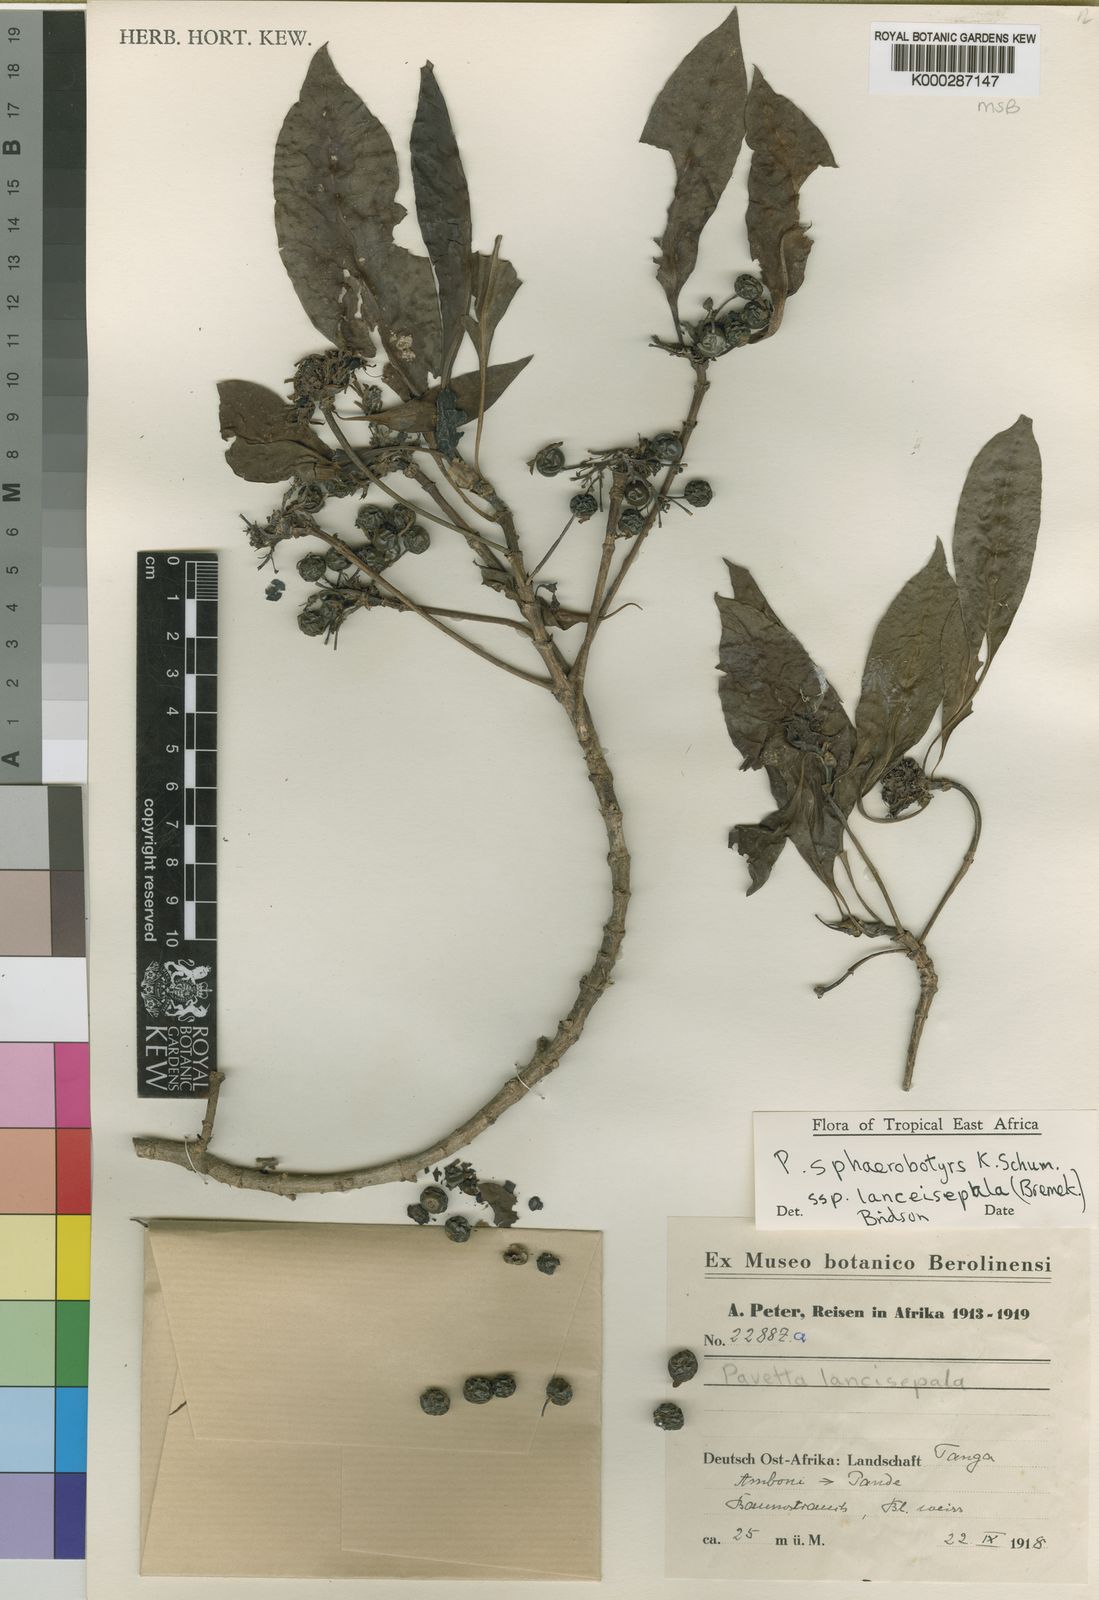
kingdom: Plantae
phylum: Tracheophyta
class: Magnoliopsida
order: Gentianales
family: Rubiaceae
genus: Pavetta
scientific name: Pavetta sphaerobotrys
